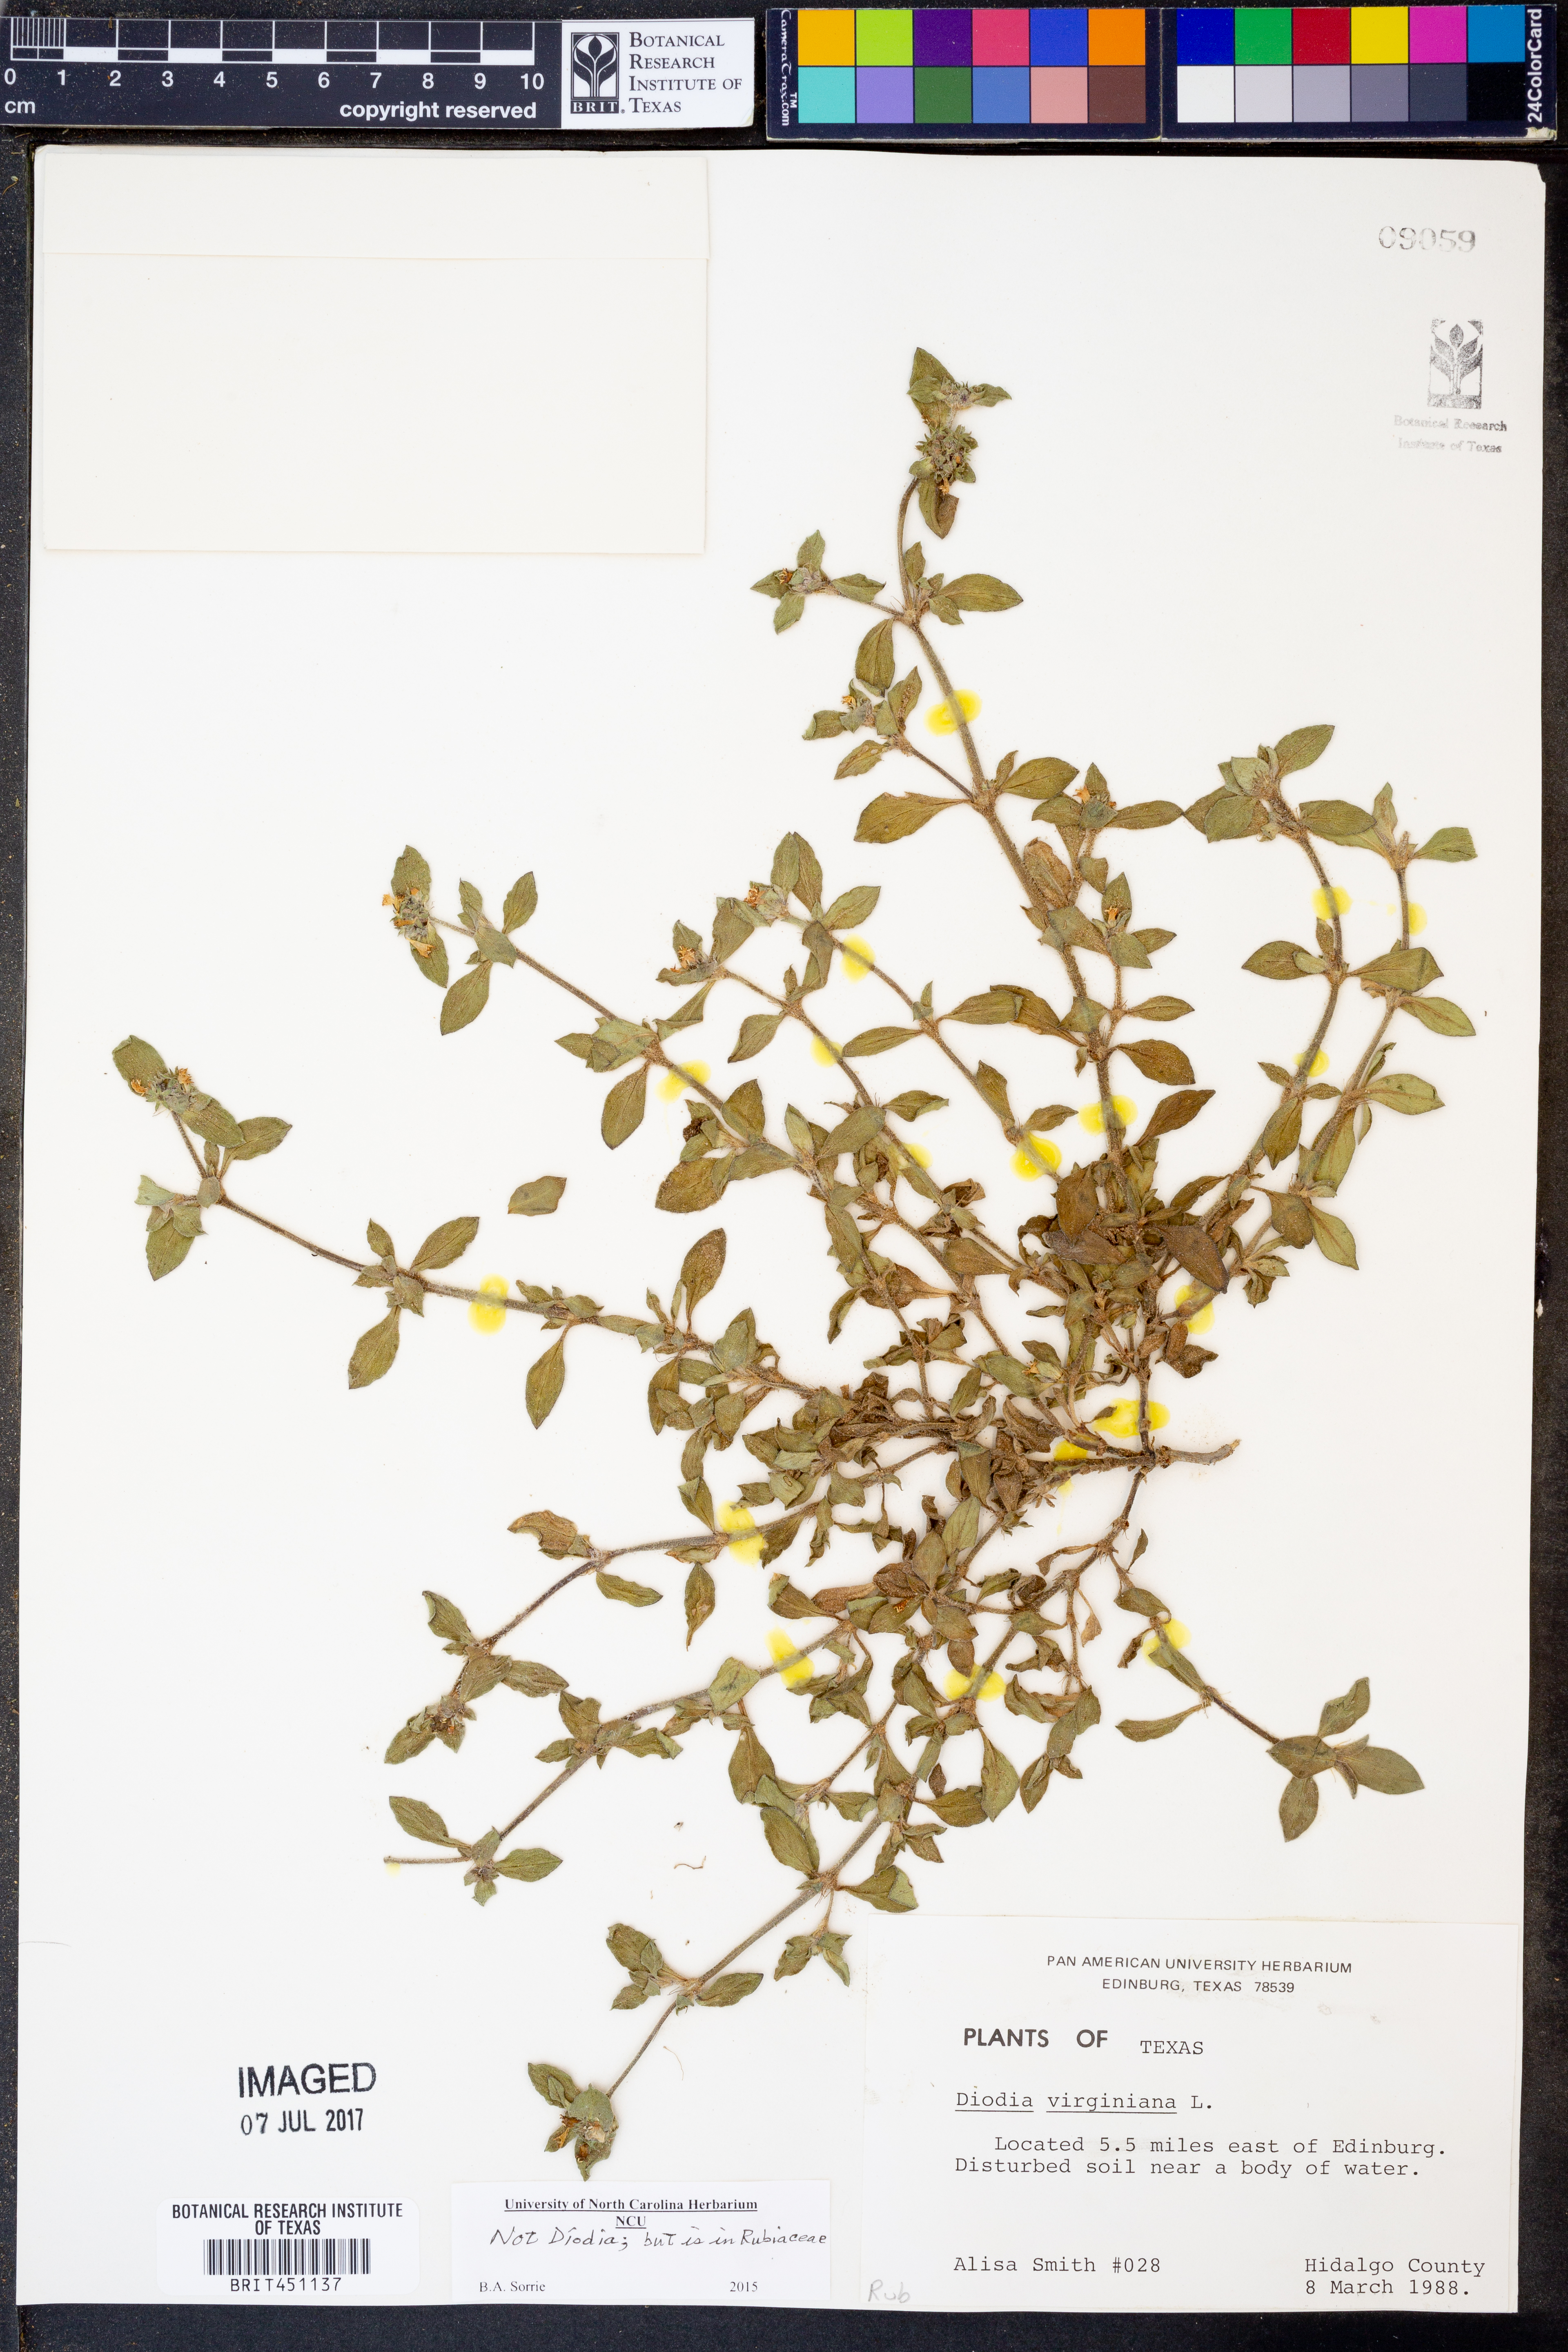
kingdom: Plantae
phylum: Tracheophyta
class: Magnoliopsida
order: Gentianales
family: Rubiaceae
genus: Diodia
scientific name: Diodia virginiana
